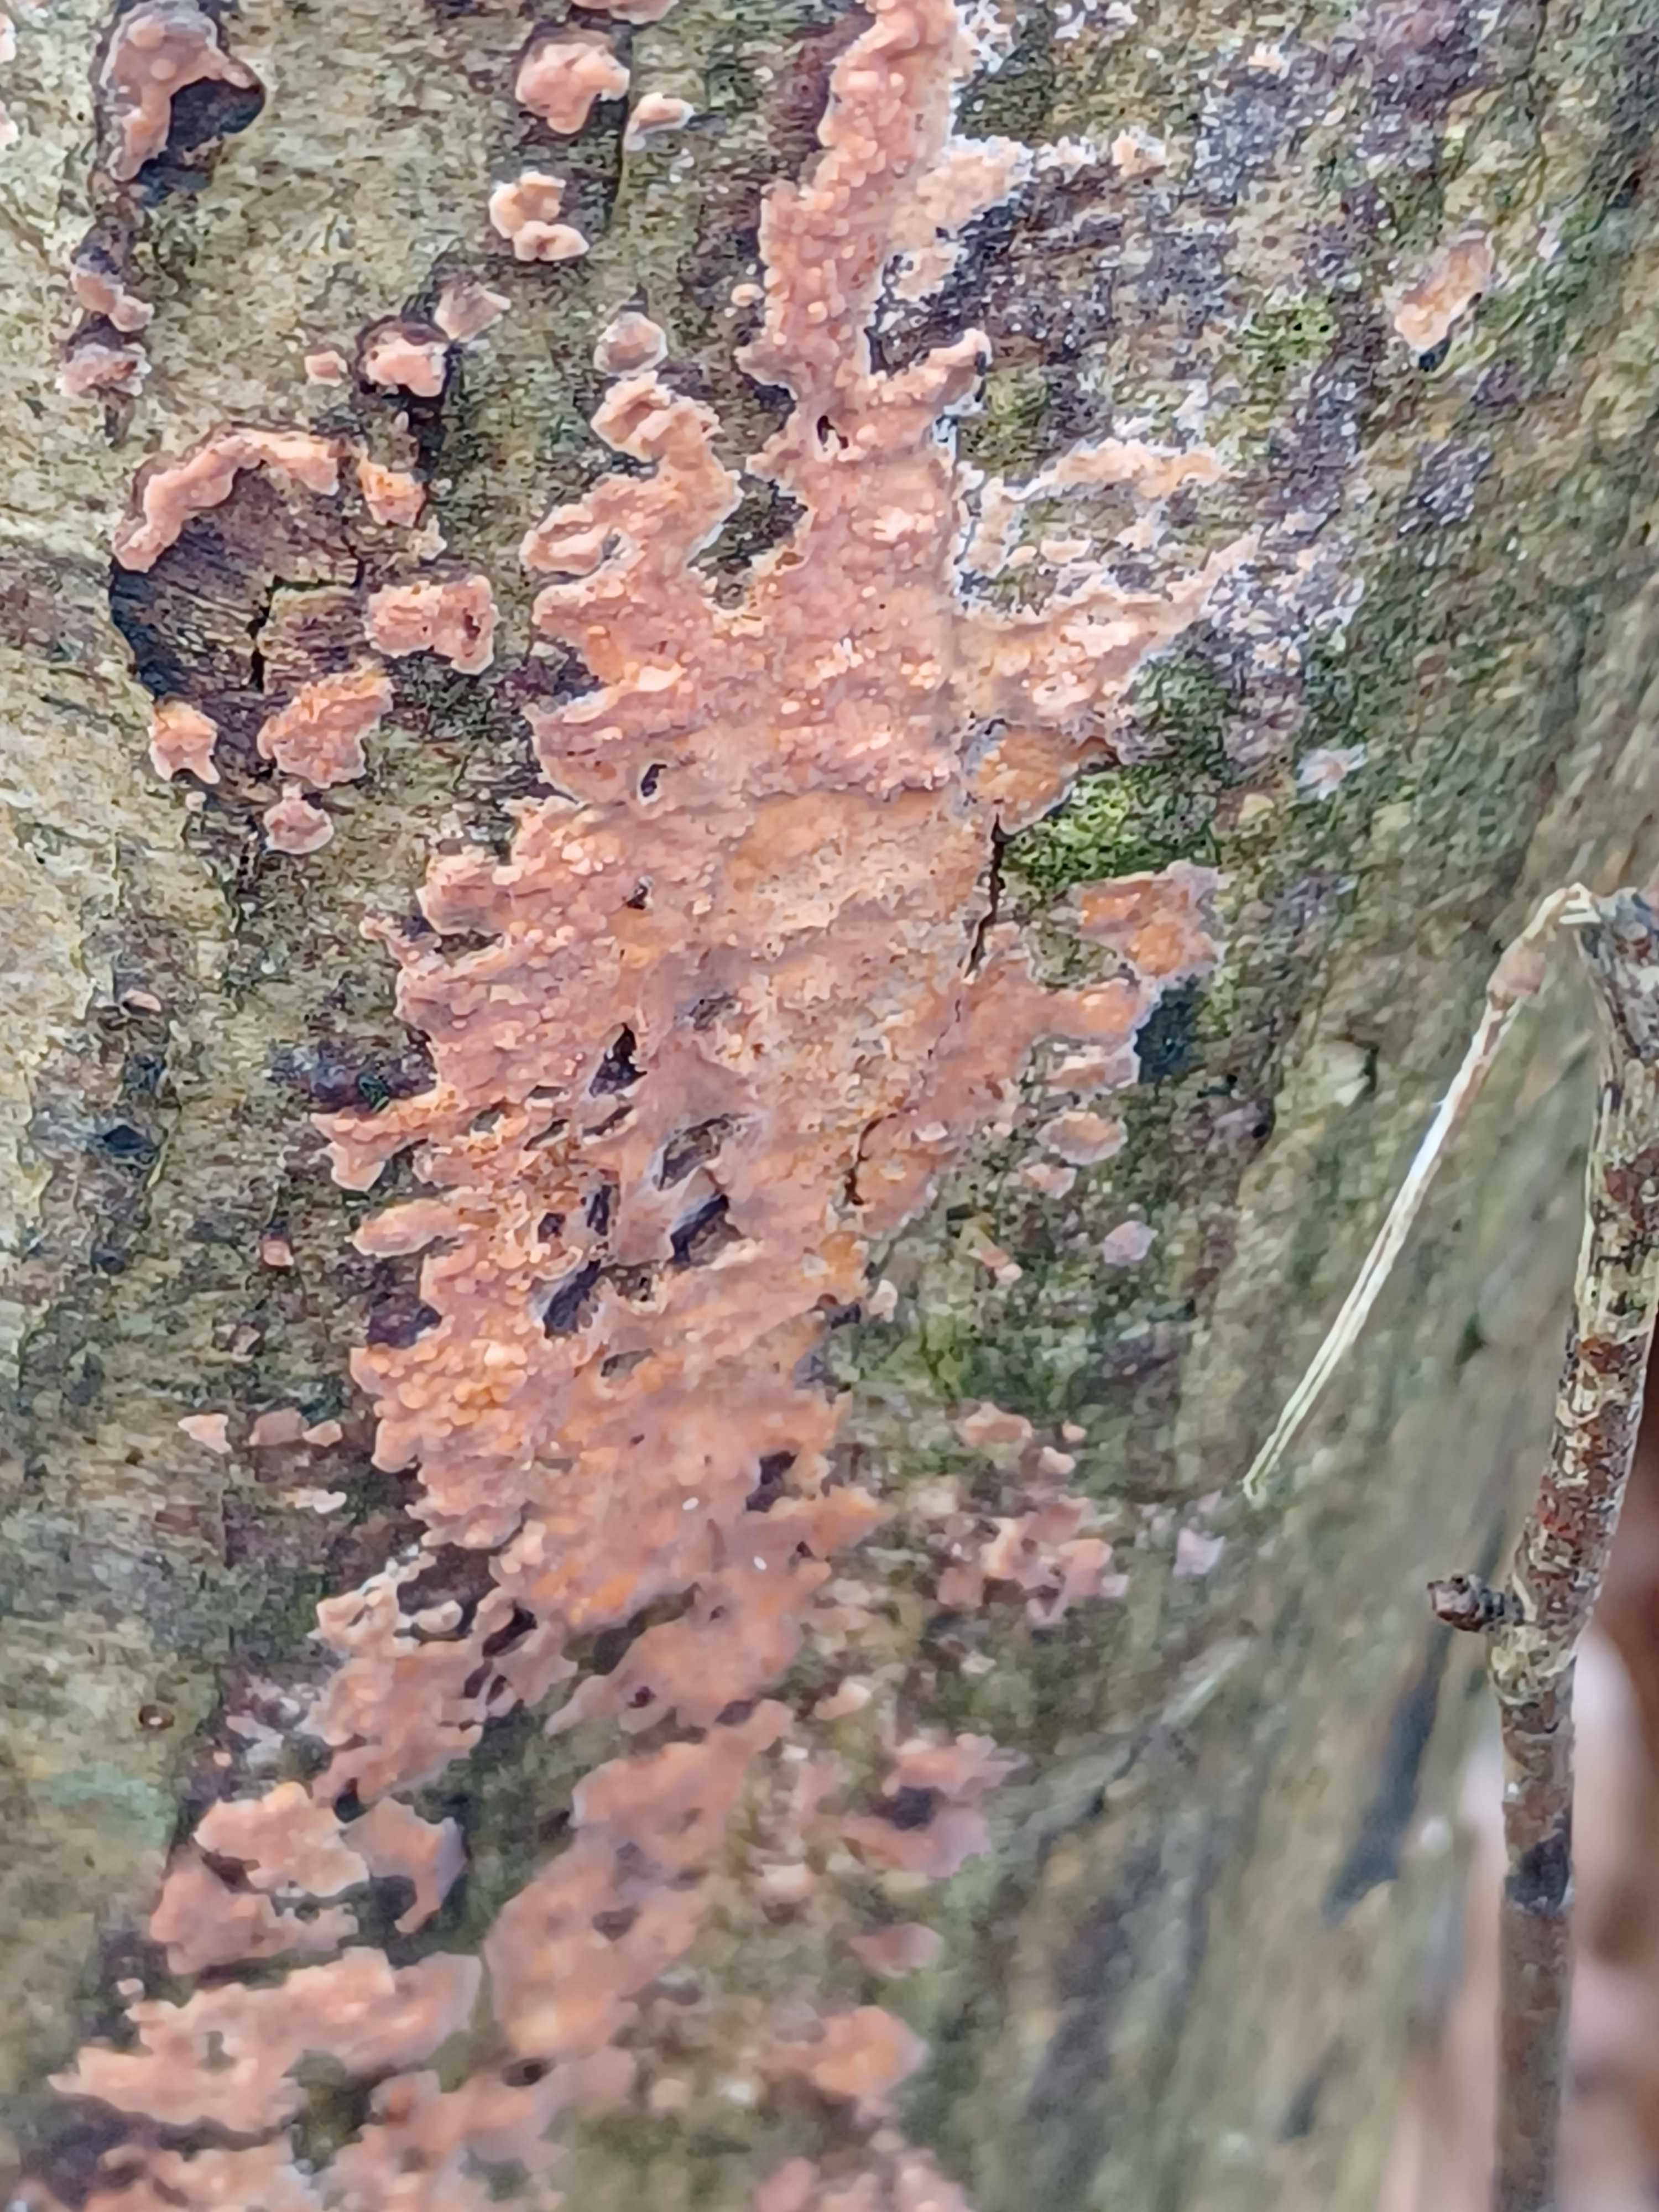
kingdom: Fungi
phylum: Basidiomycota
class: Agaricomycetes
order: Russulales
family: Peniophoraceae
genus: Peniophora
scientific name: Peniophora incarnata
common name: laksefarvet voksskind
